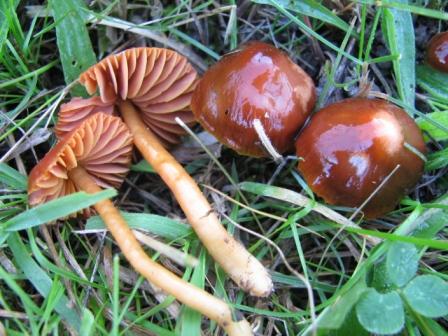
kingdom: Fungi
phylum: Basidiomycota
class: Agaricomycetes
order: Agaricales
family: Hygrophoraceae
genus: Gliophorus
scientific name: Gliophorus europerplexus
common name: Butterscotch waxcap
